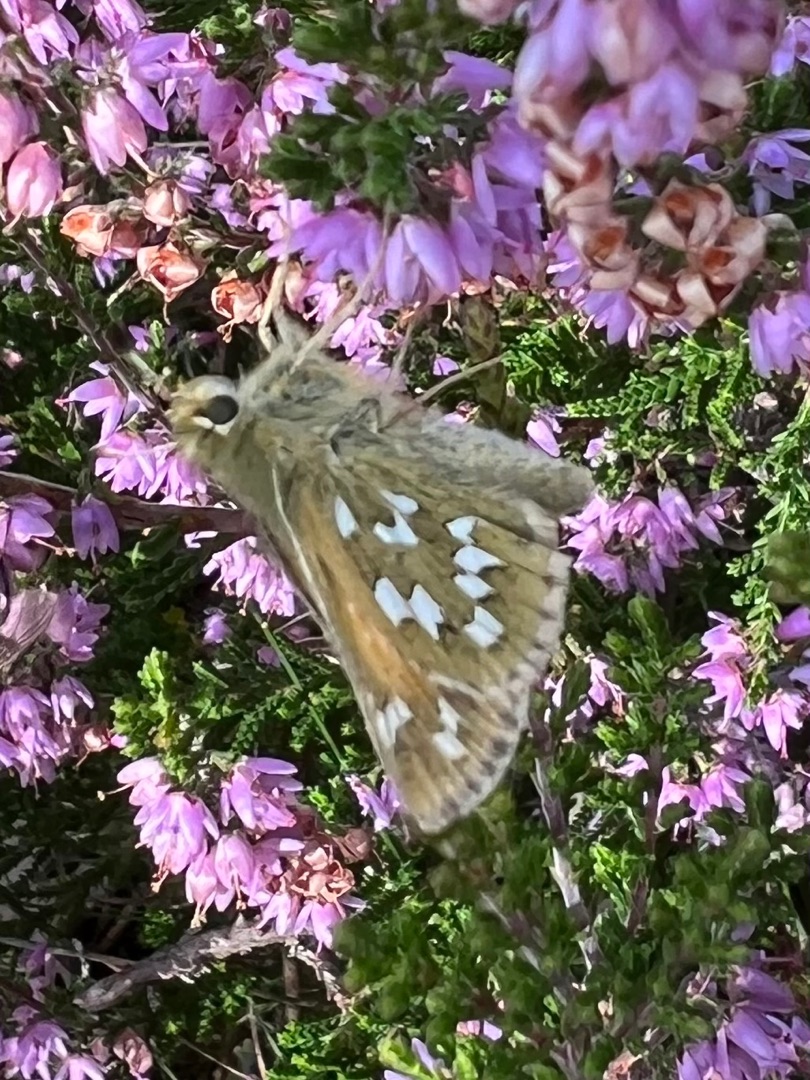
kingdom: Animalia
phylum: Arthropoda
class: Insecta
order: Lepidoptera
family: Hesperiidae
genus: Hesperia
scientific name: Hesperia comma
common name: Kommabredpande
